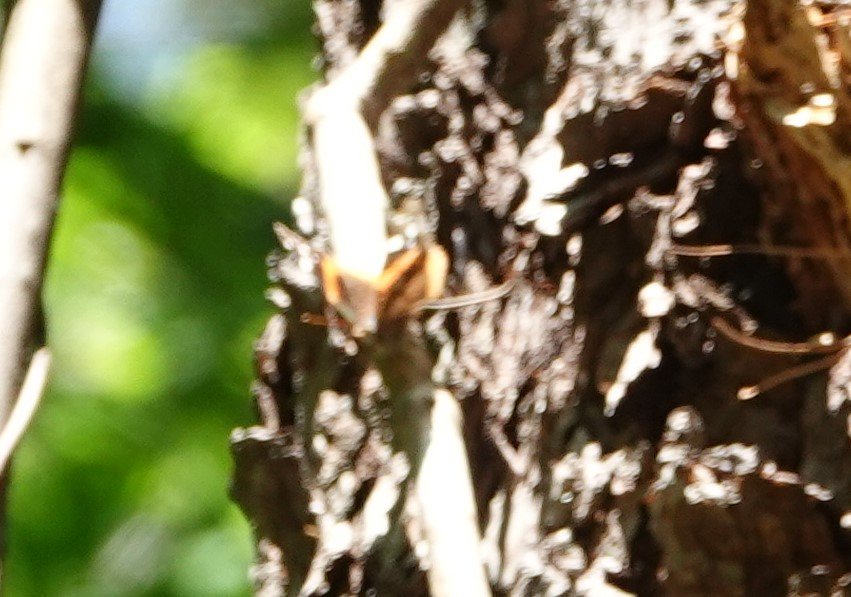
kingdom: Animalia
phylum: Arthropoda
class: Insecta
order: Lepidoptera
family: Nymphalidae
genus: Vanessa
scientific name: Vanessa atalanta
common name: Red Admiral
